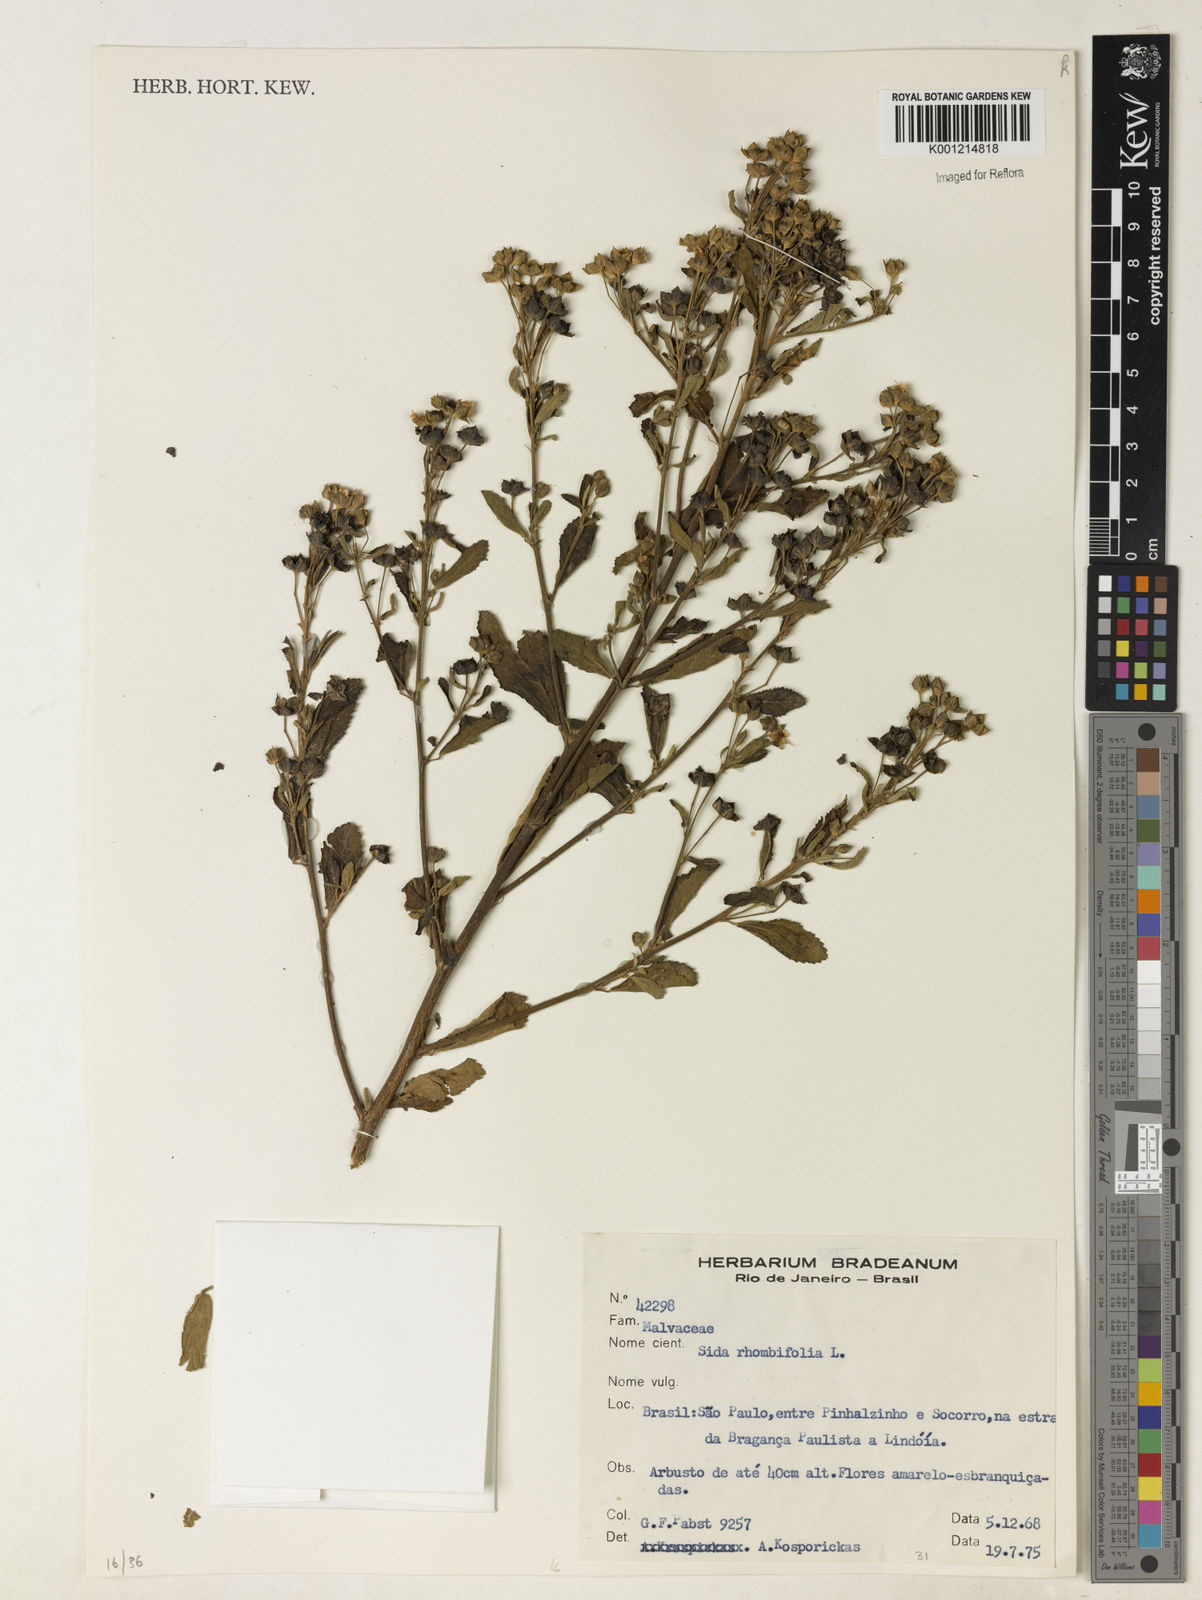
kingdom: Plantae
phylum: Tracheophyta
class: Magnoliopsida
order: Malvales
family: Malvaceae
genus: Sida
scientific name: Sida rhombifolia
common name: Queensland-hemp
